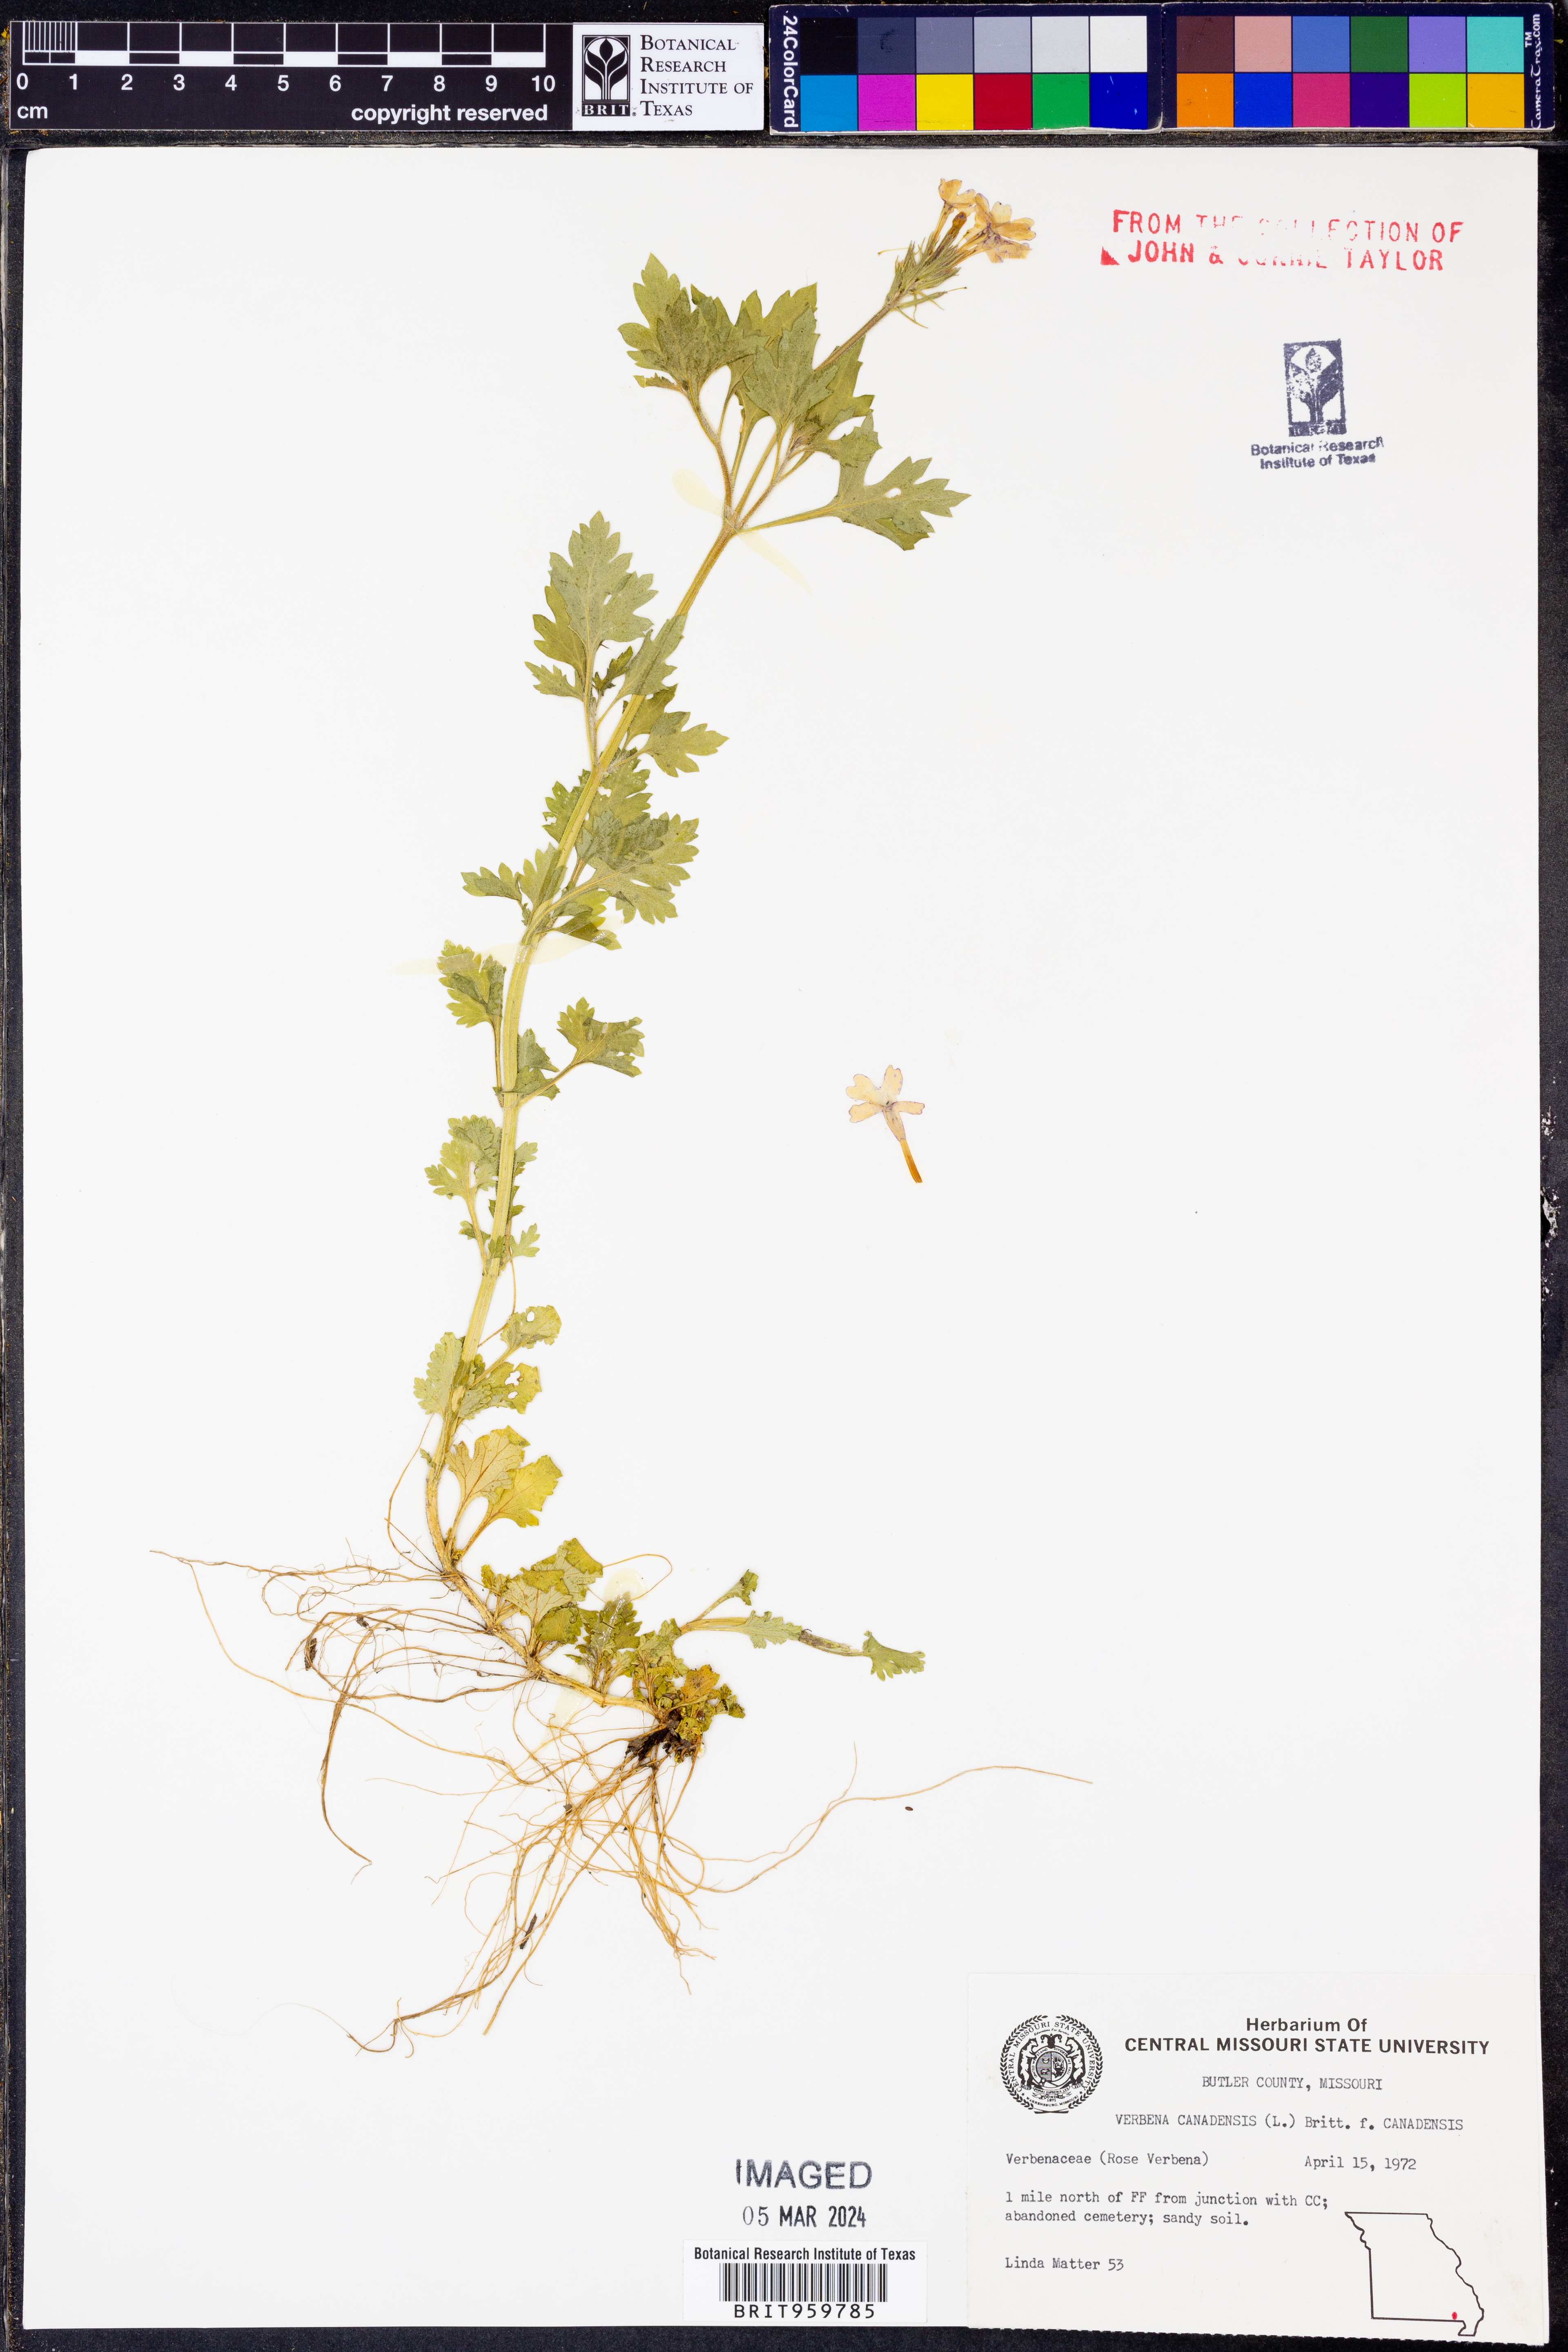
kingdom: Plantae
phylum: Tracheophyta
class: Magnoliopsida
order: Lamiales
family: Verbenaceae
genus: Verbena
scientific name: Verbena canadensis
